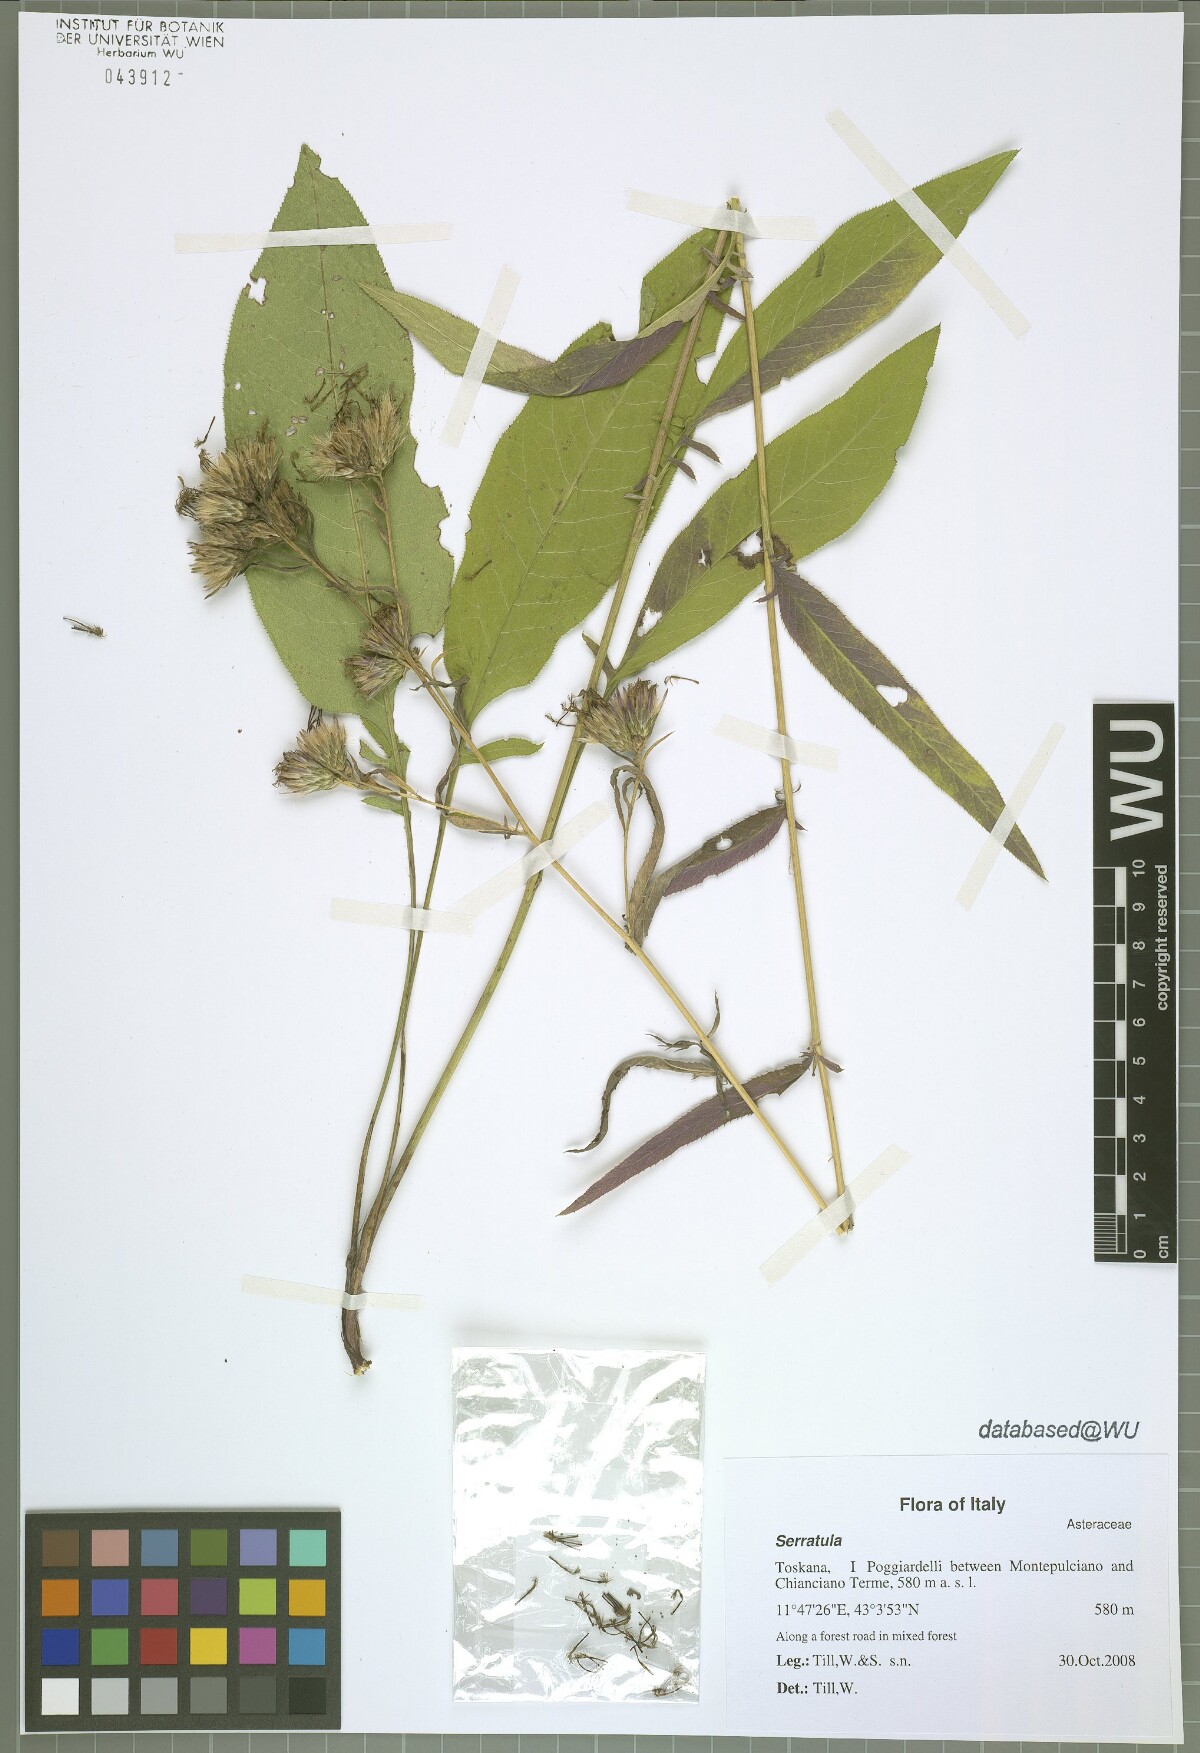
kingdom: Plantae
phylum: Tracheophyta
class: Magnoliopsida
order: Asterales
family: Asteraceae
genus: Serratula
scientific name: Serratula tinctoria
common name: Saw-wort
